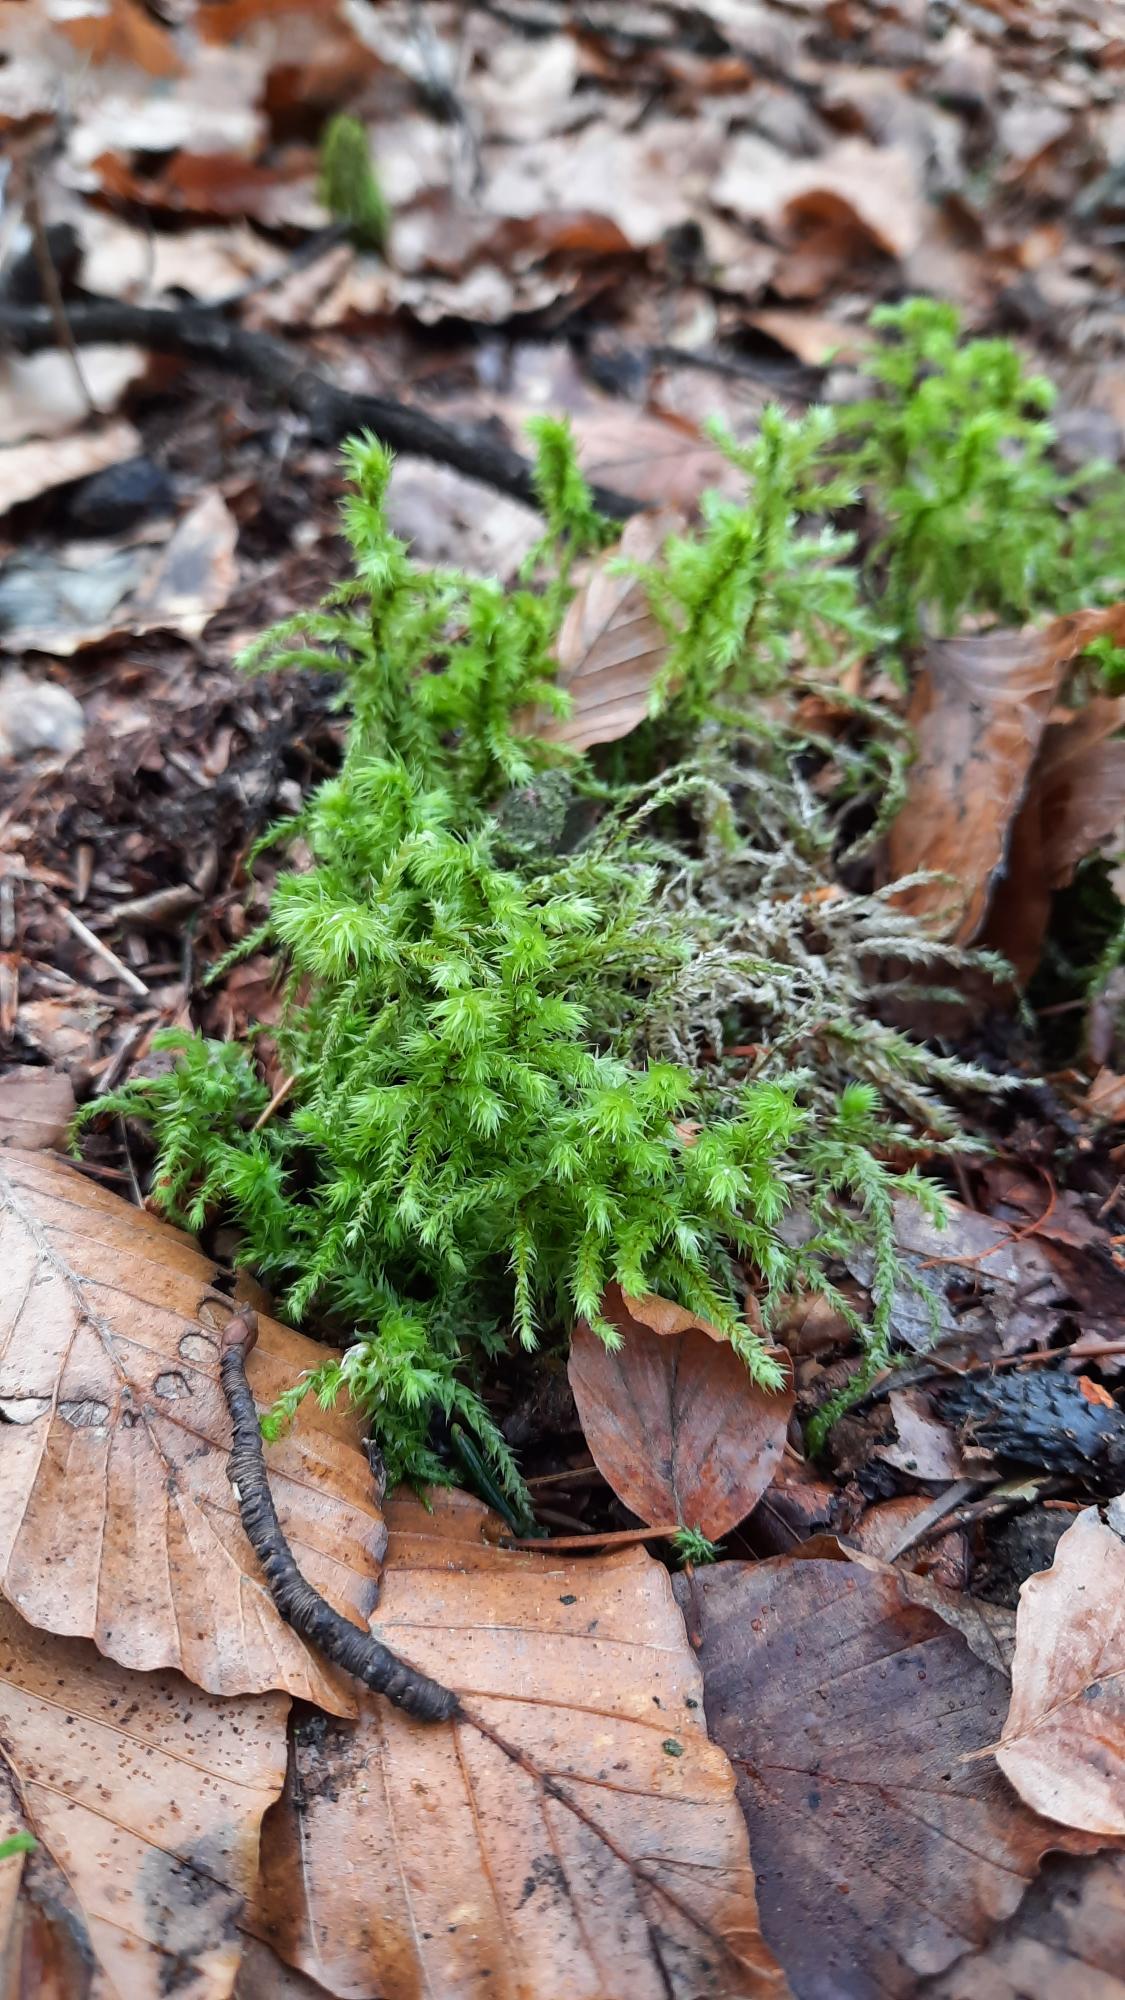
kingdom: Plantae
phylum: Bryophyta
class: Bryopsida
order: Hypnales
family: Hylocomiaceae
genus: Hylocomiadelphus
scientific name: Hylocomiadelphus triquetrus
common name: Stor kransemos
